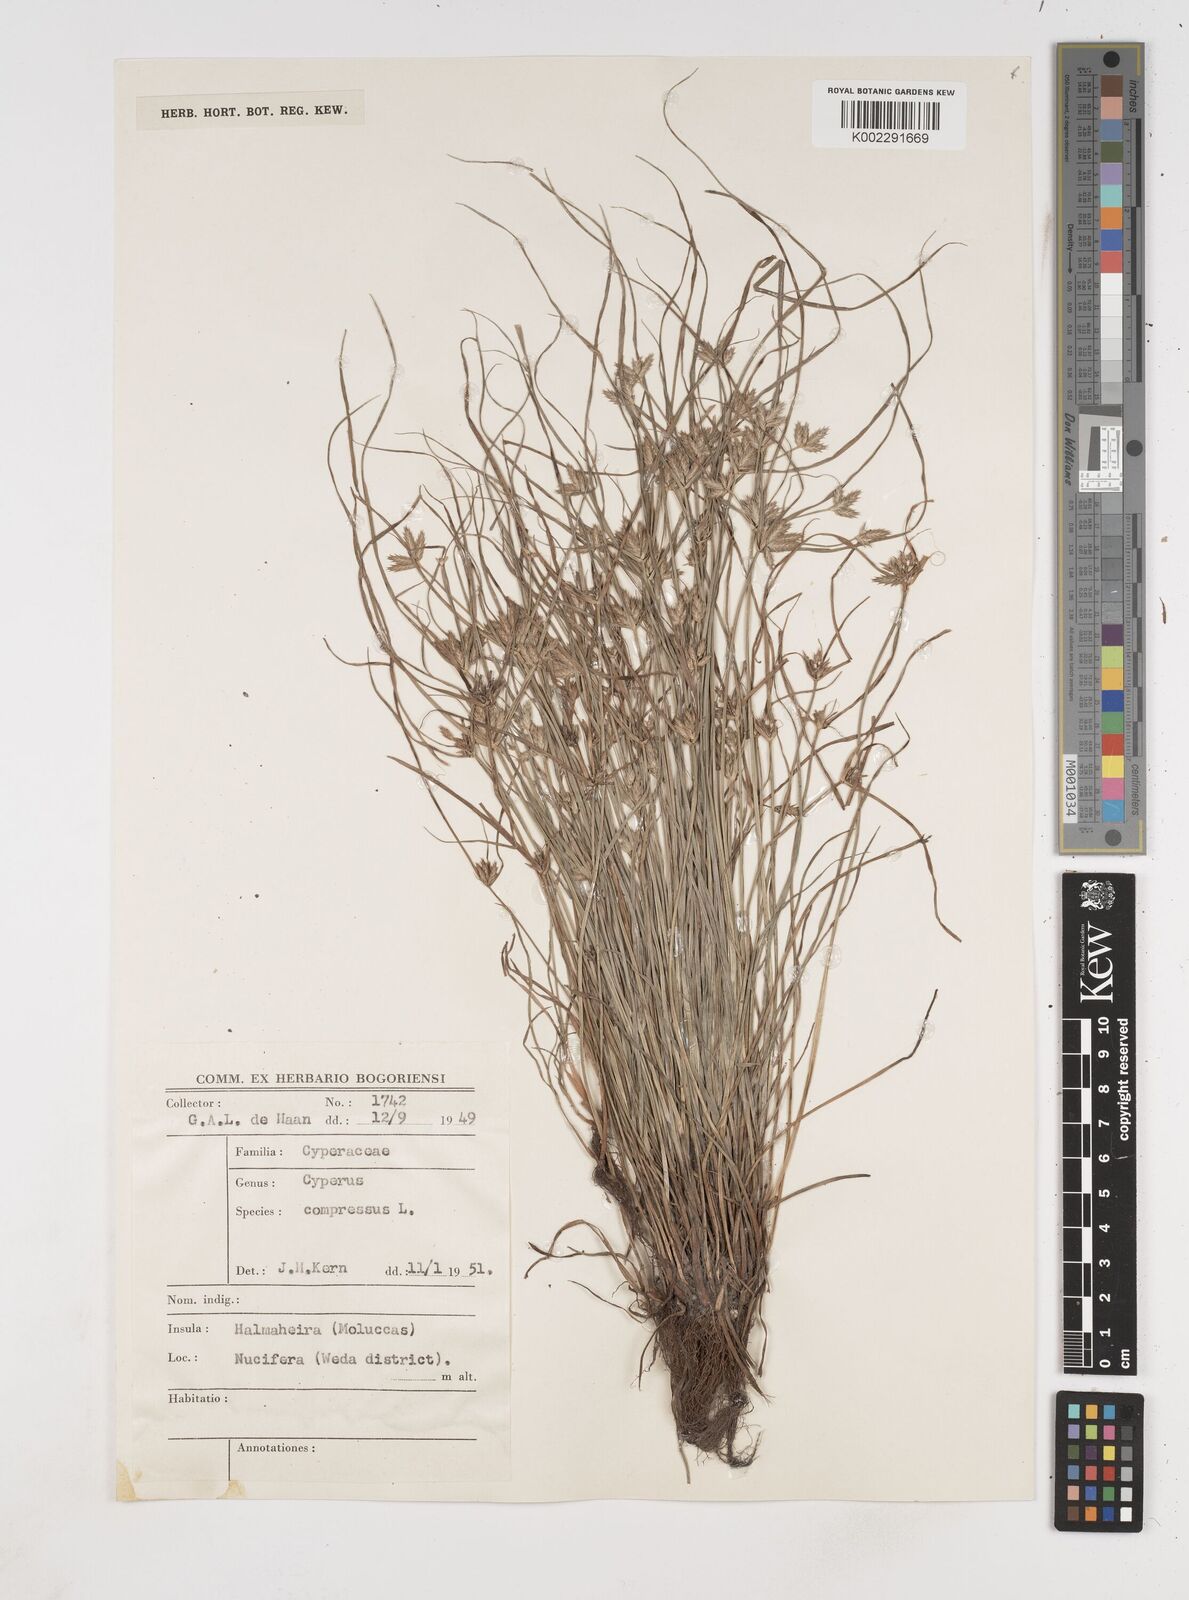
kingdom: Plantae
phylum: Tracheophyta
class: Liliopsida
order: Poales
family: Cyperaceae
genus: Cyperus
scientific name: Cyperus compressus
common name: Poorland flatsedge
